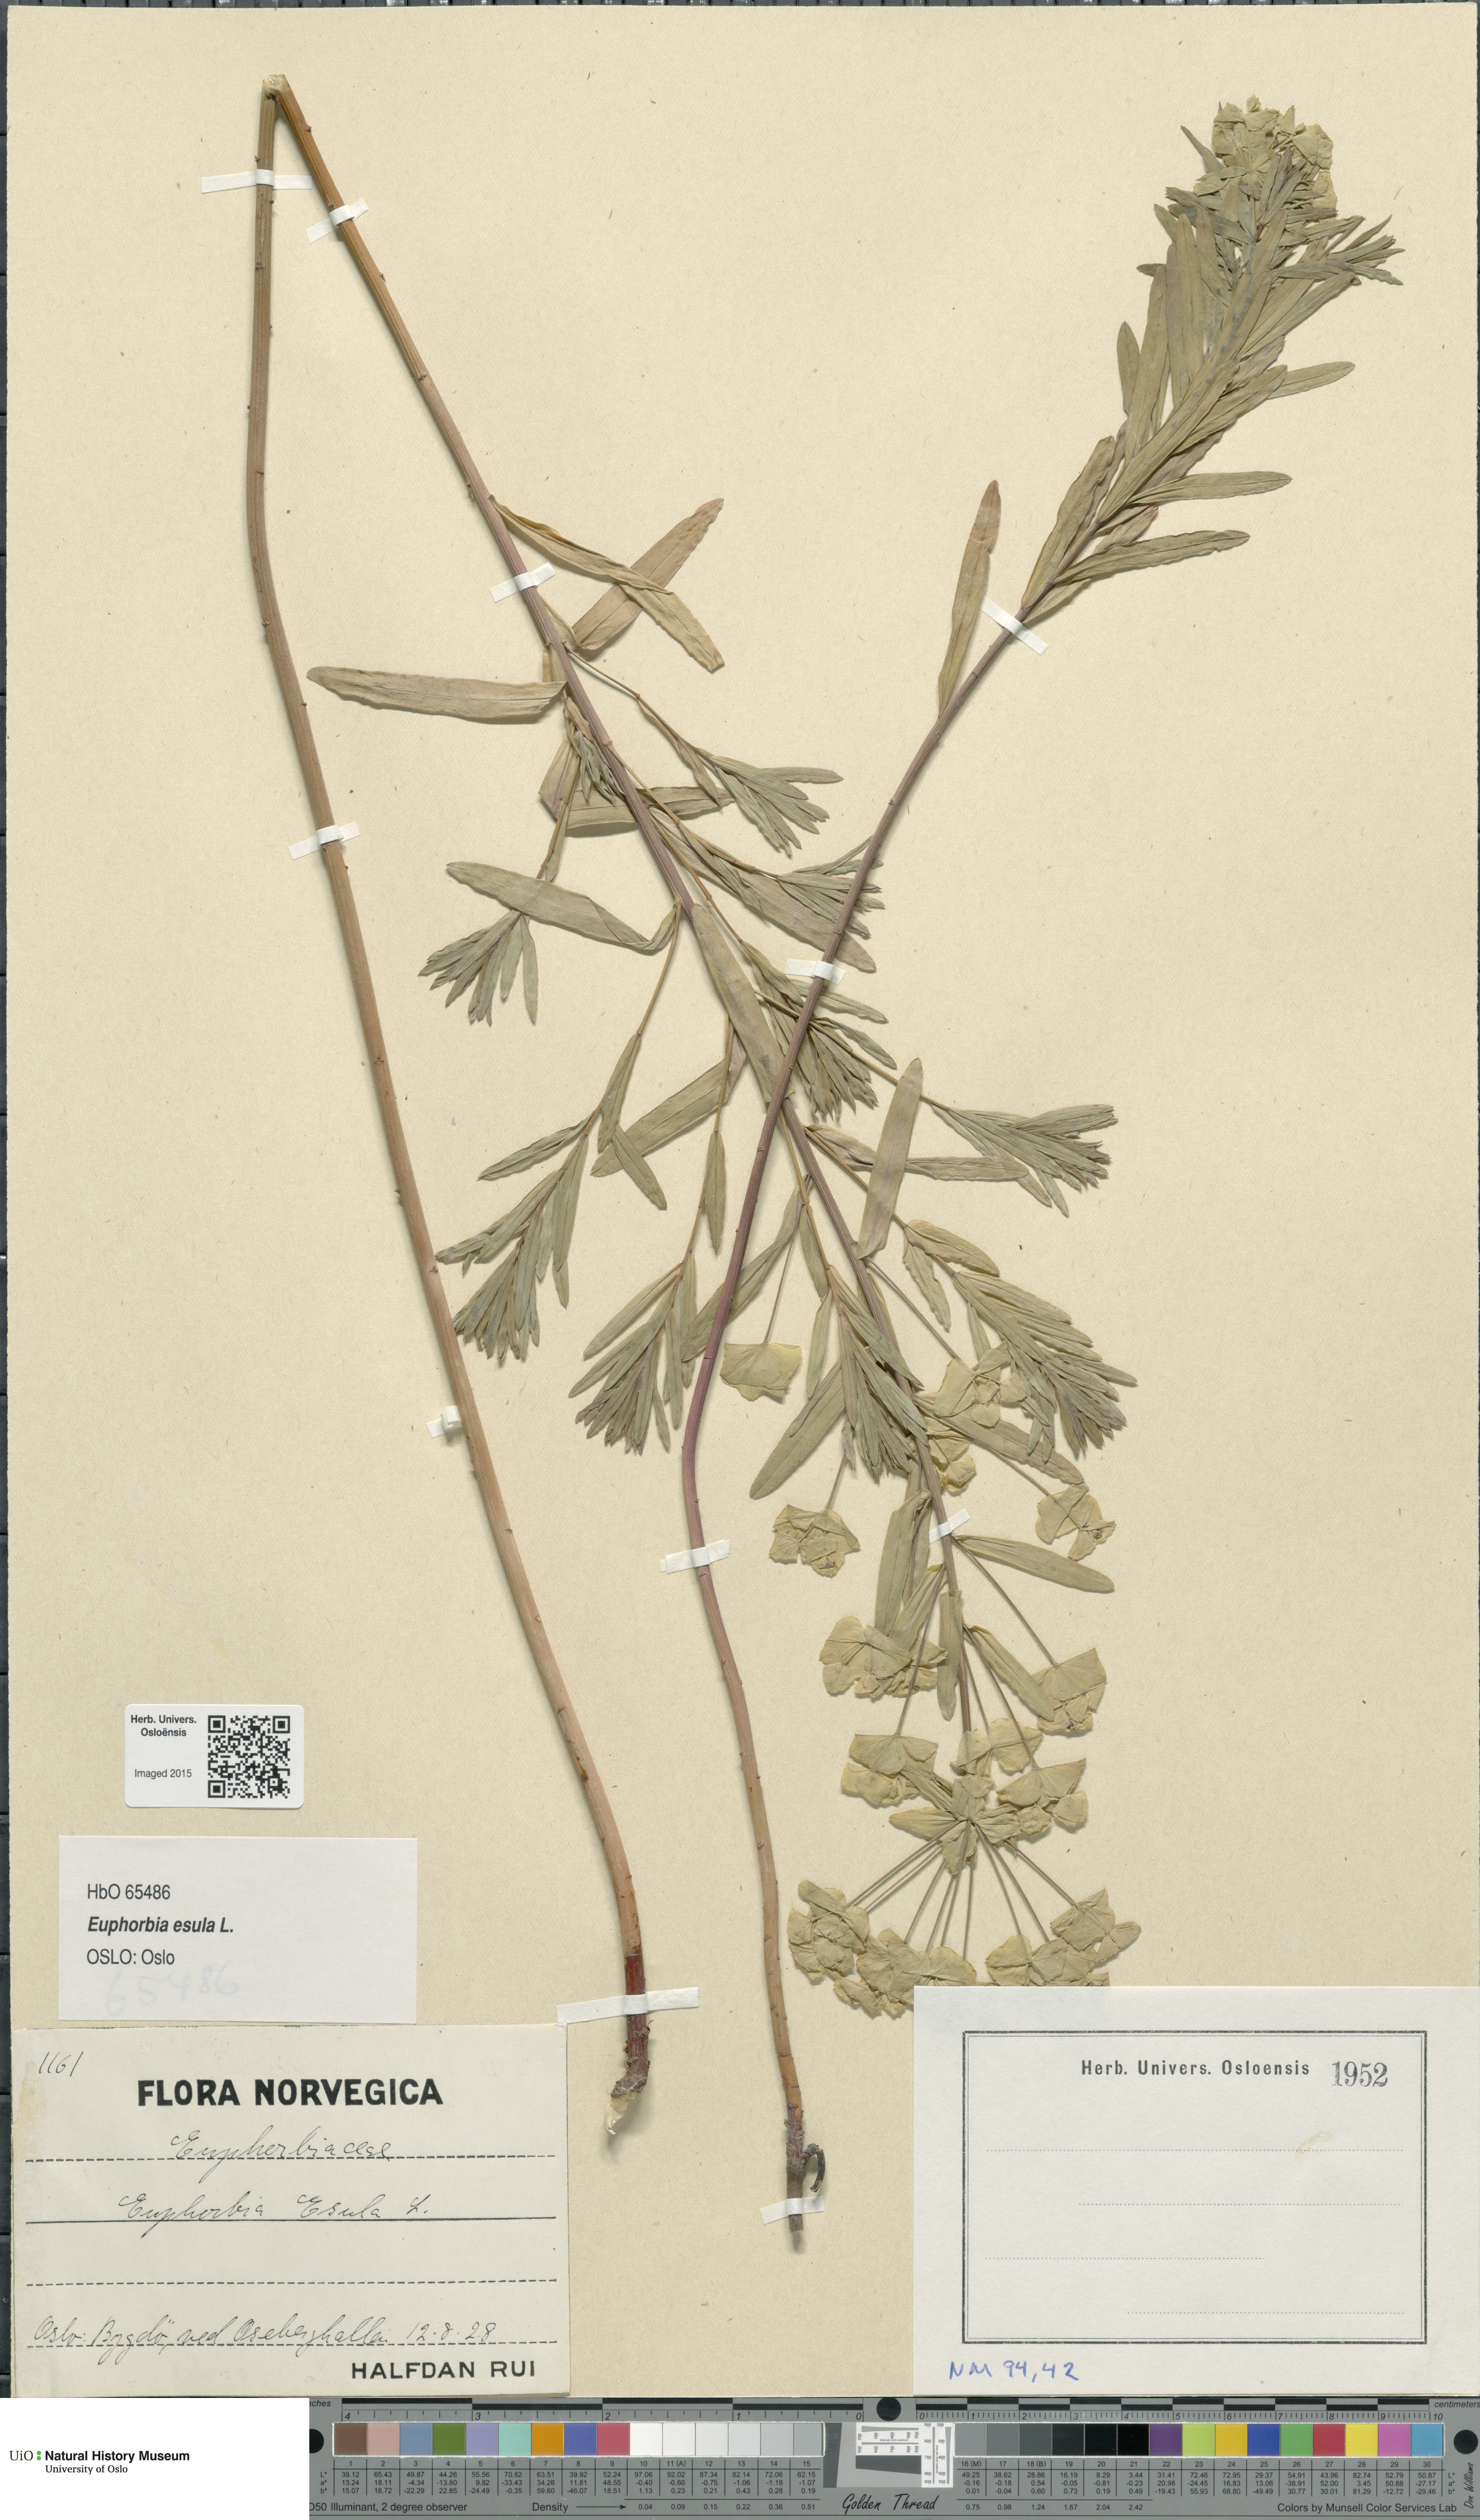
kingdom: Plantae
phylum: Tracheophyta
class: Magnoliopsida
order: Malpighiales
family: Euphorbiaceae
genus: Euphorbia
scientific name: Euphorbia esula
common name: Leafy spurge
